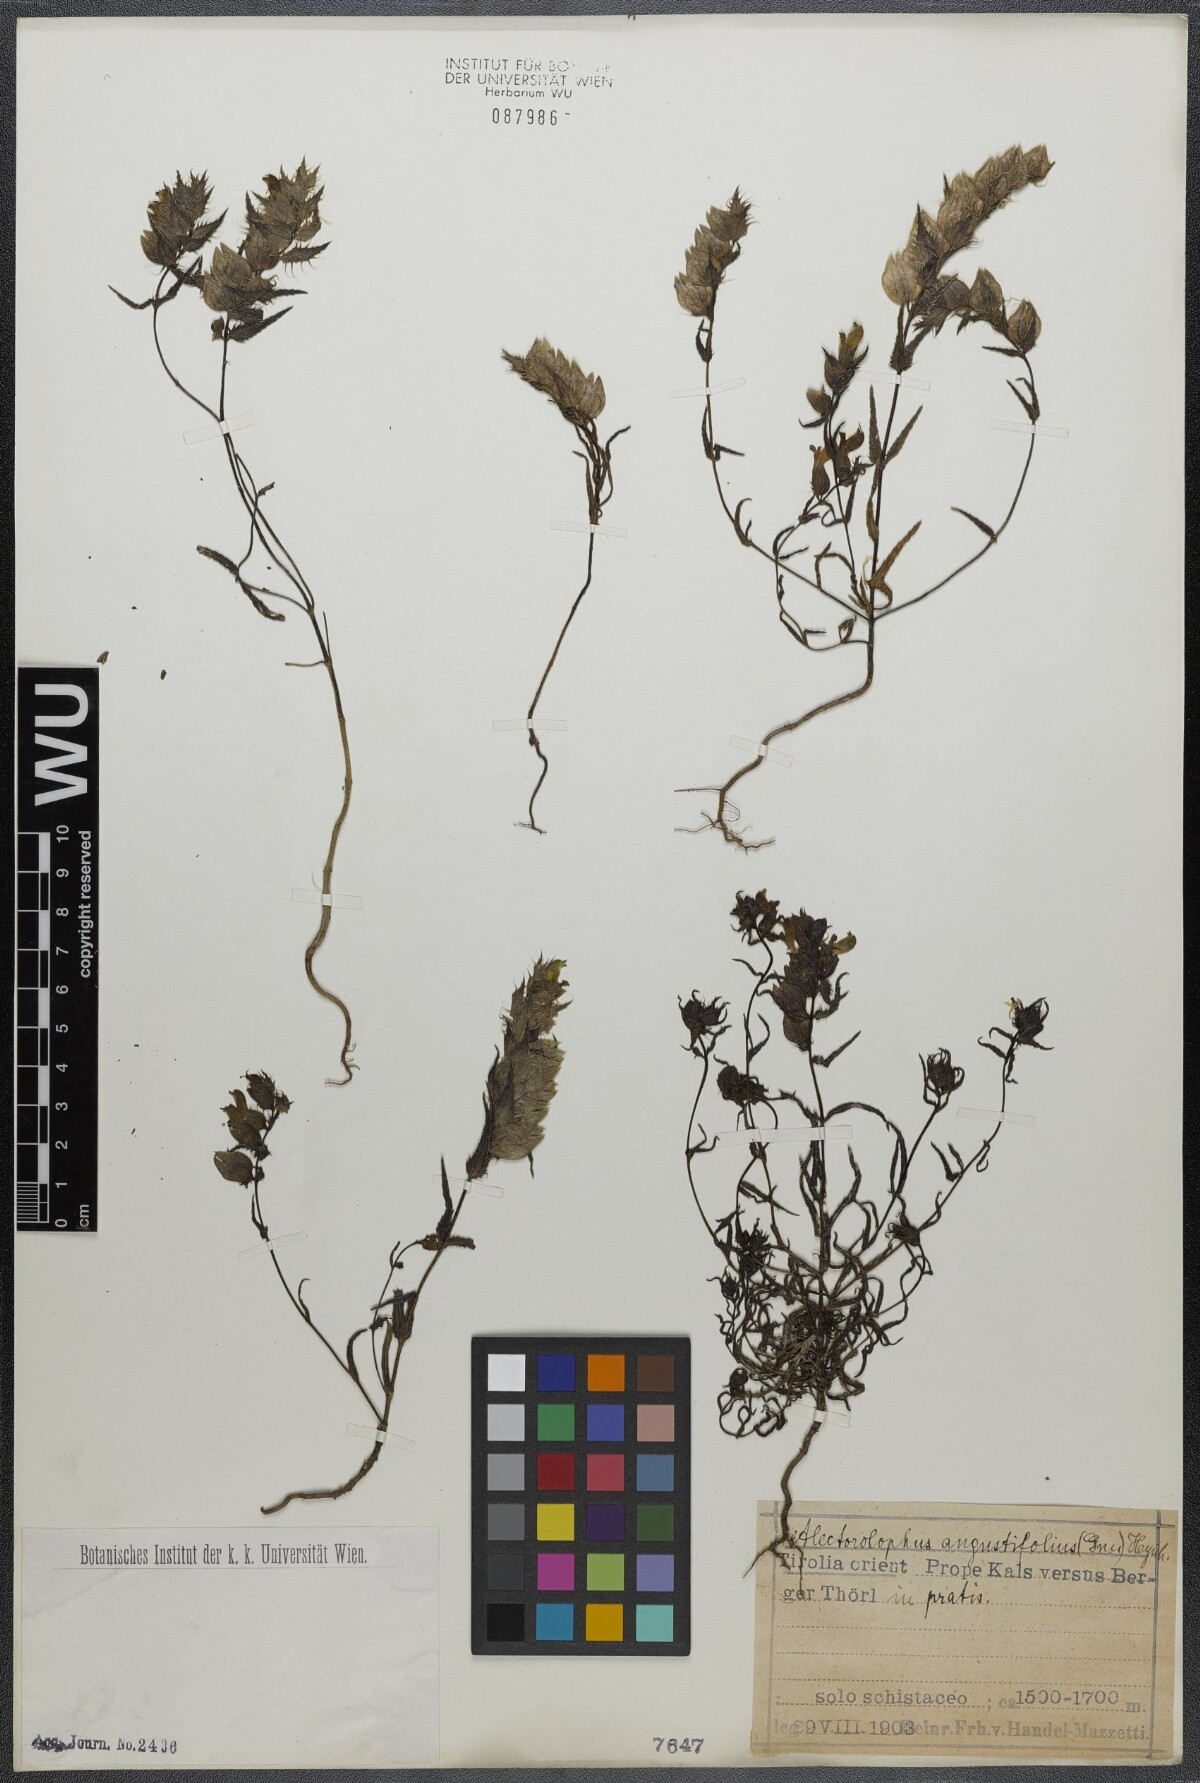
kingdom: Plantae
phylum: Tracheophyta
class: Magnoliopsida
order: Lamiales
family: Orobanchaceae
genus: Rhinanthus
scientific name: Rhinanthus
